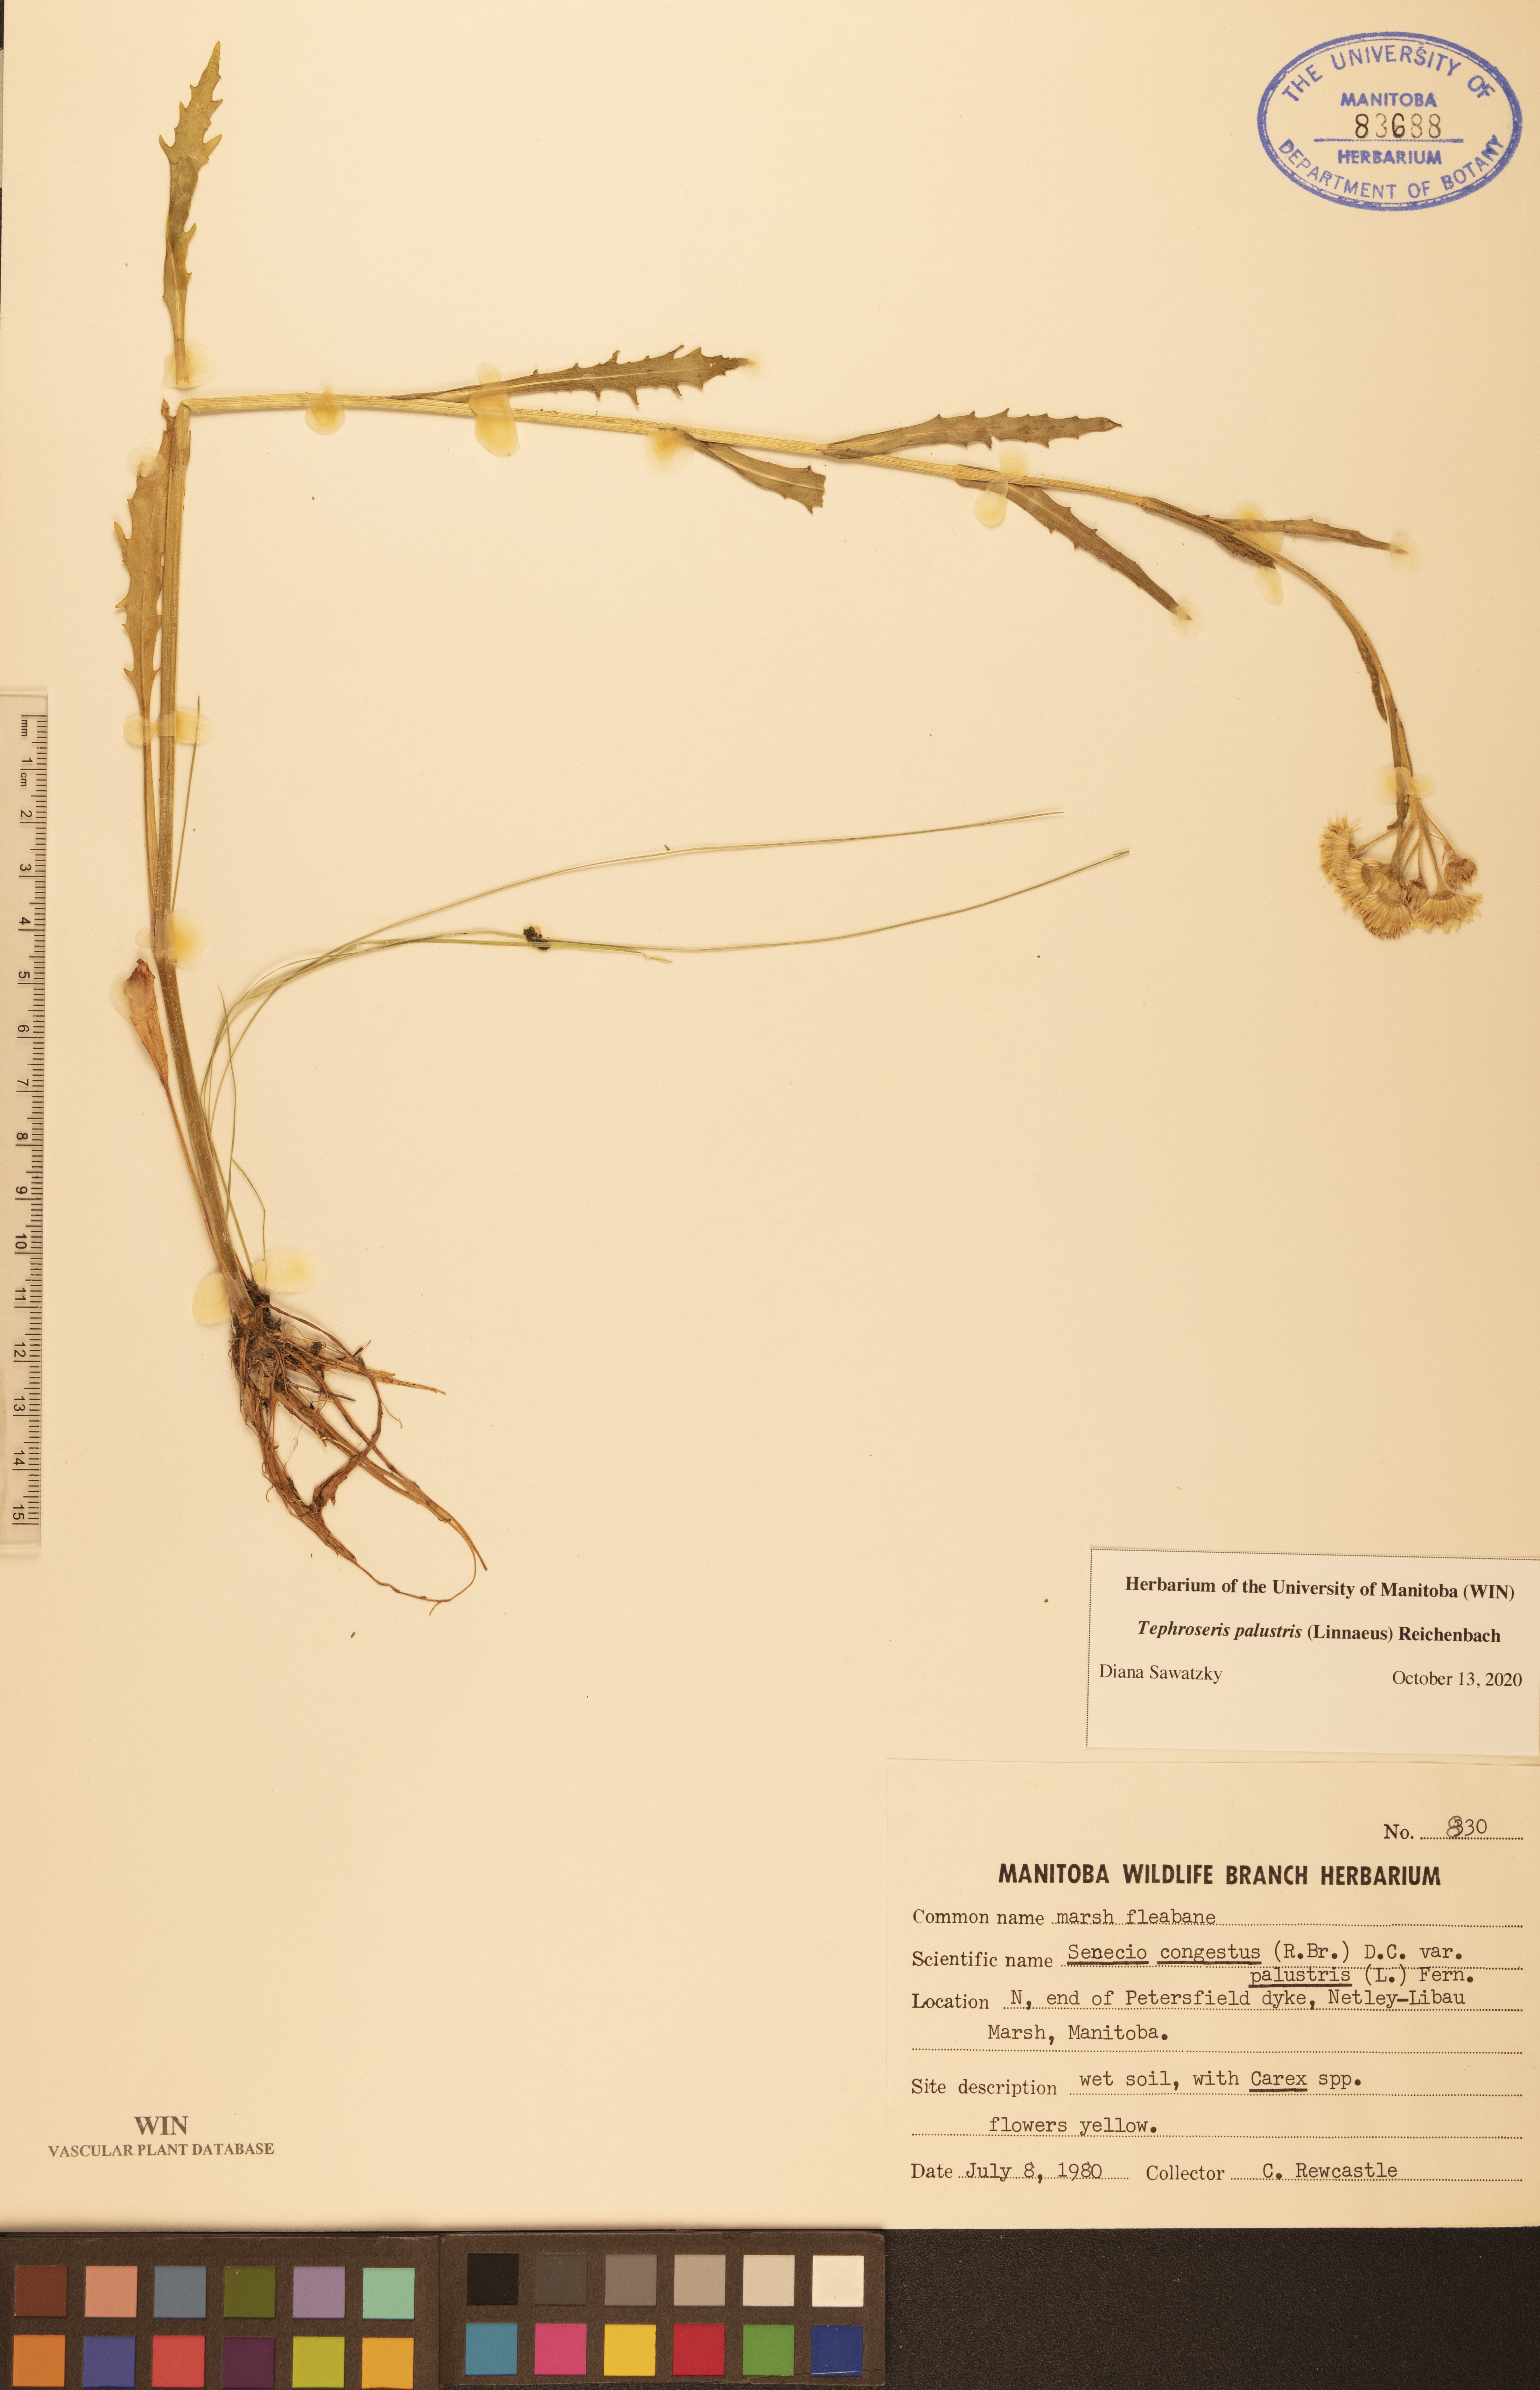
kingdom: Plantae
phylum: Tracheophyta
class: Magnoliopsida
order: Asterales
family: Asteraceae
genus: Tephroseris
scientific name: Tephroseris palustris
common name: Marsh fleawort
